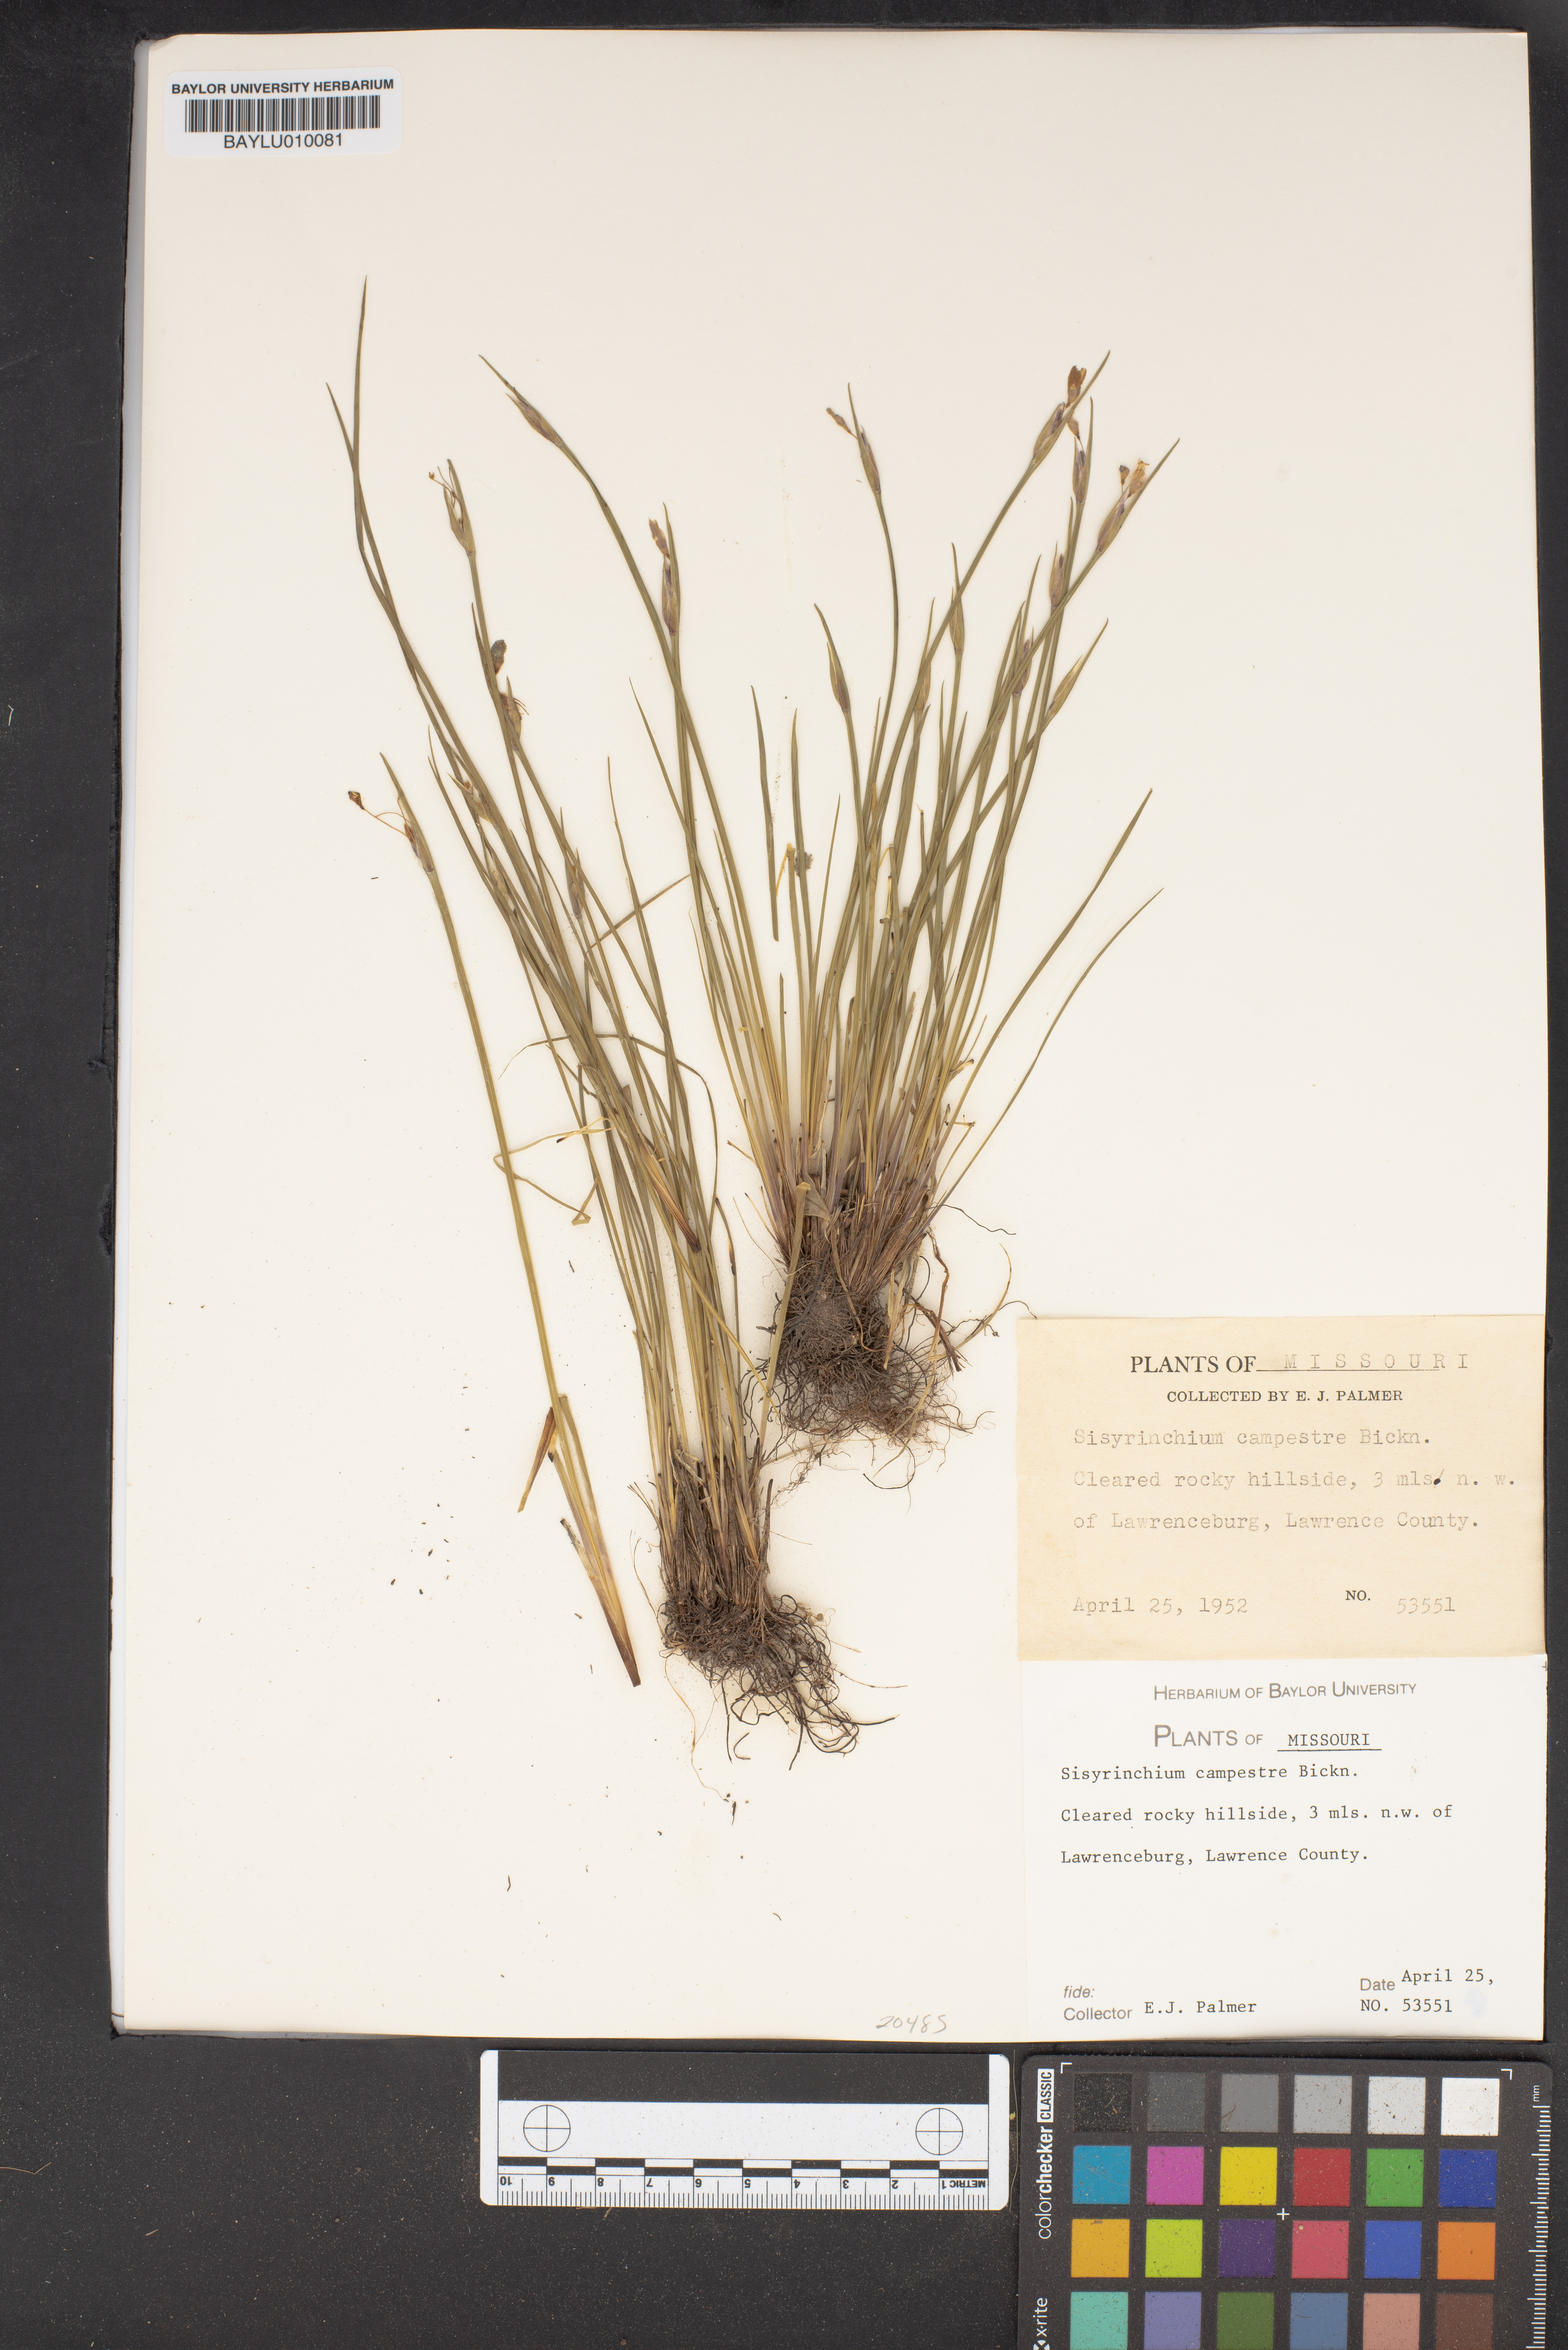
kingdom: Plantae
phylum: Tracheophyta
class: Liliopsida
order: Asparagales
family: Iridaceae
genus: Sisyrinchium
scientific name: Sisyrinchium campestre
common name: Prairie blue-eyed-grass
